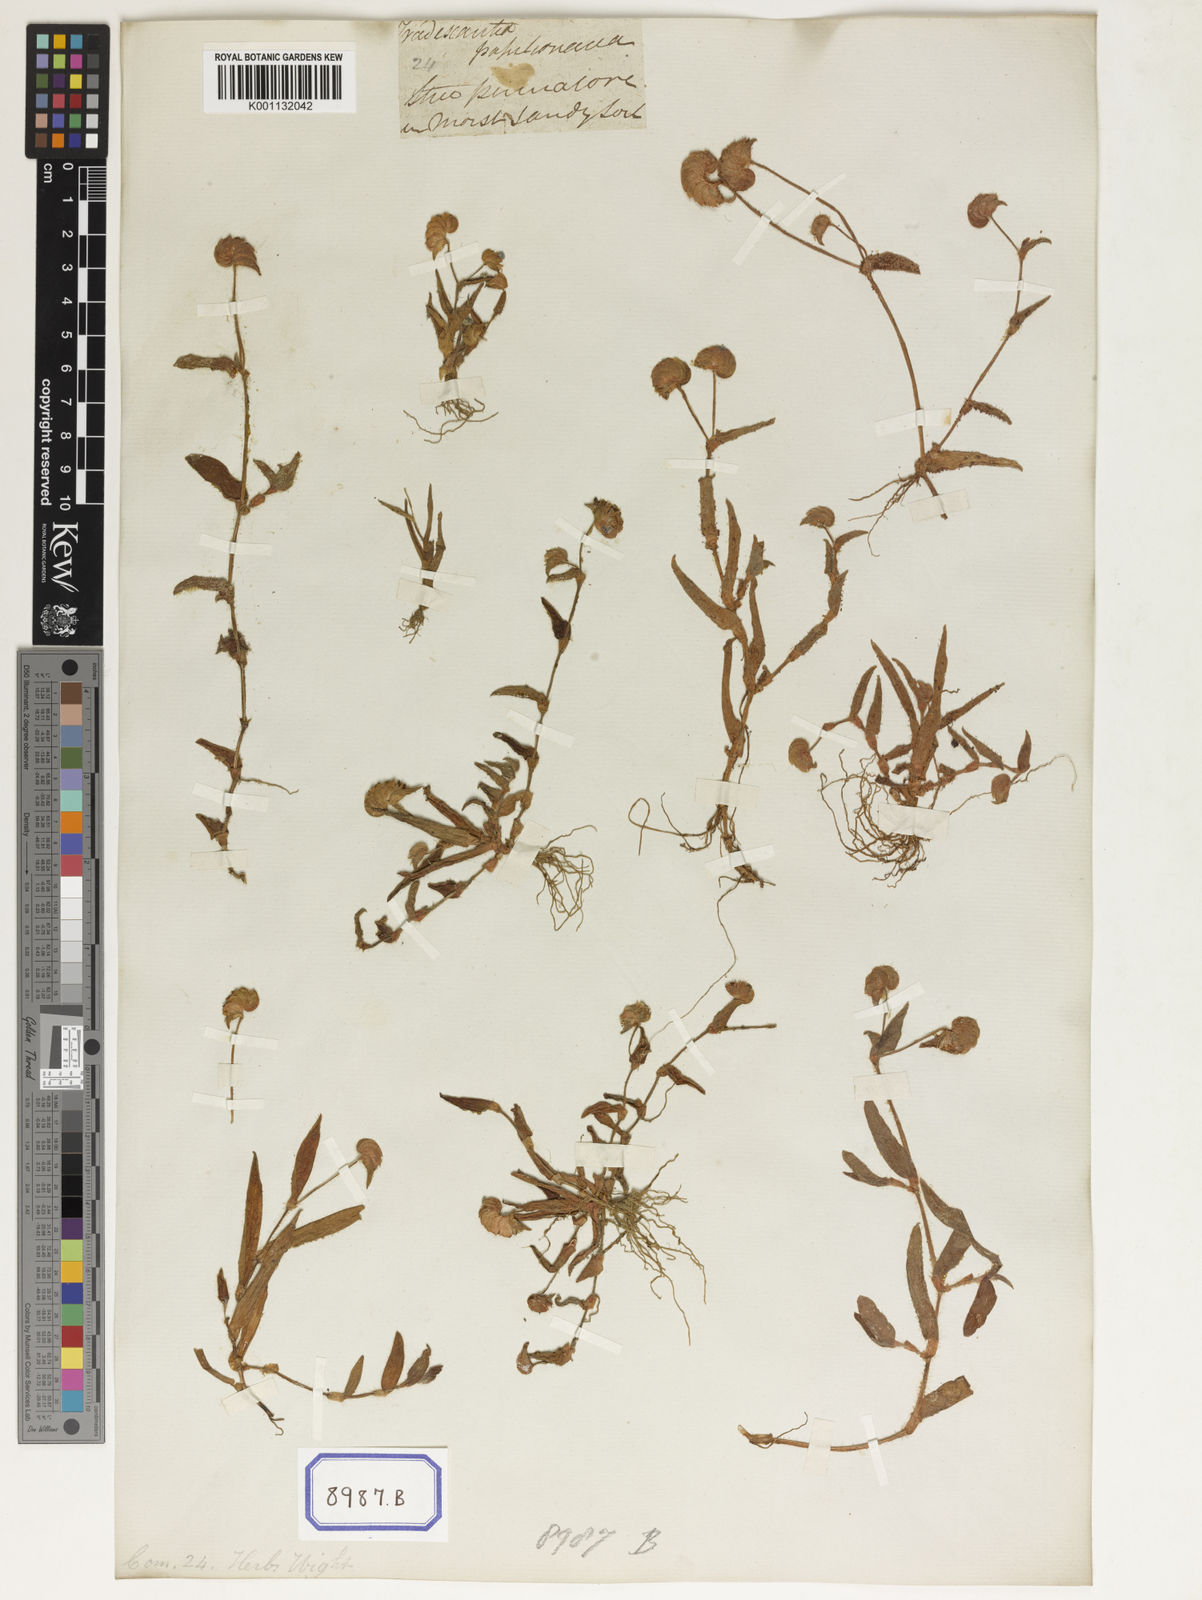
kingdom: Plantae
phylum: Tracheophyta
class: Liliopsida
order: Commelinales
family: Commelinaceae
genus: Cyanotis
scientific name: Cyanotis cristata
